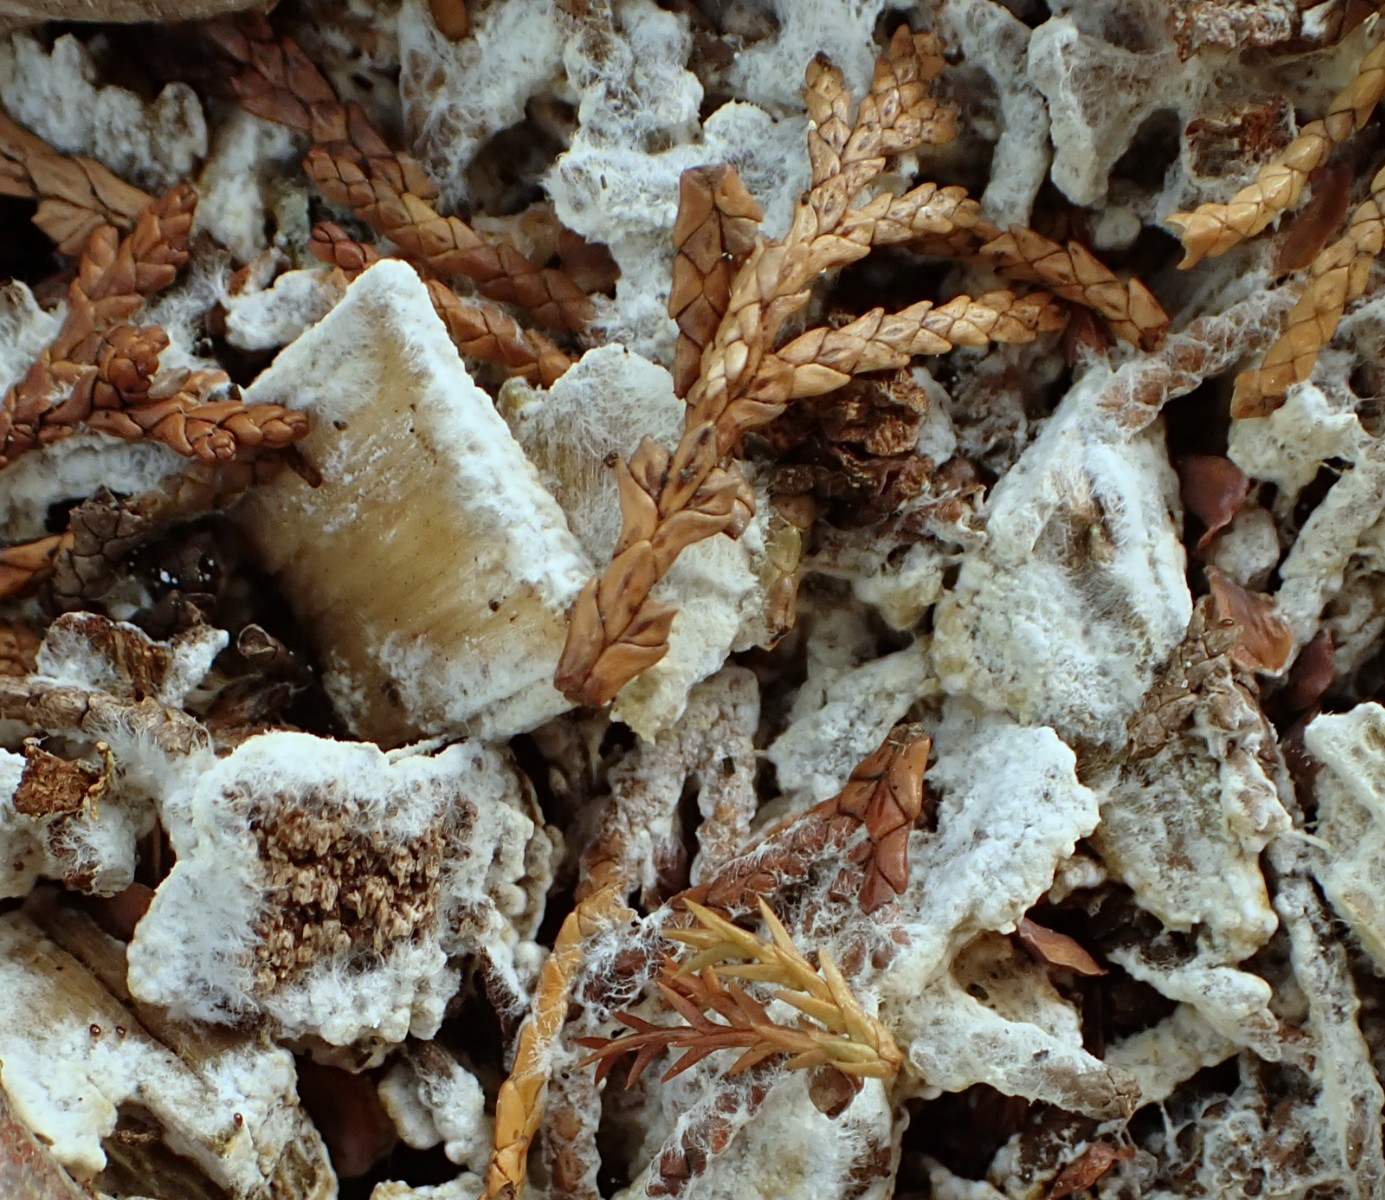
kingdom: Fungi
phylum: Basidiomycota
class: Agaricomycetes
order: Boletales
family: Coniophoraceae
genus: Coniophora
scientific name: Coniophora
